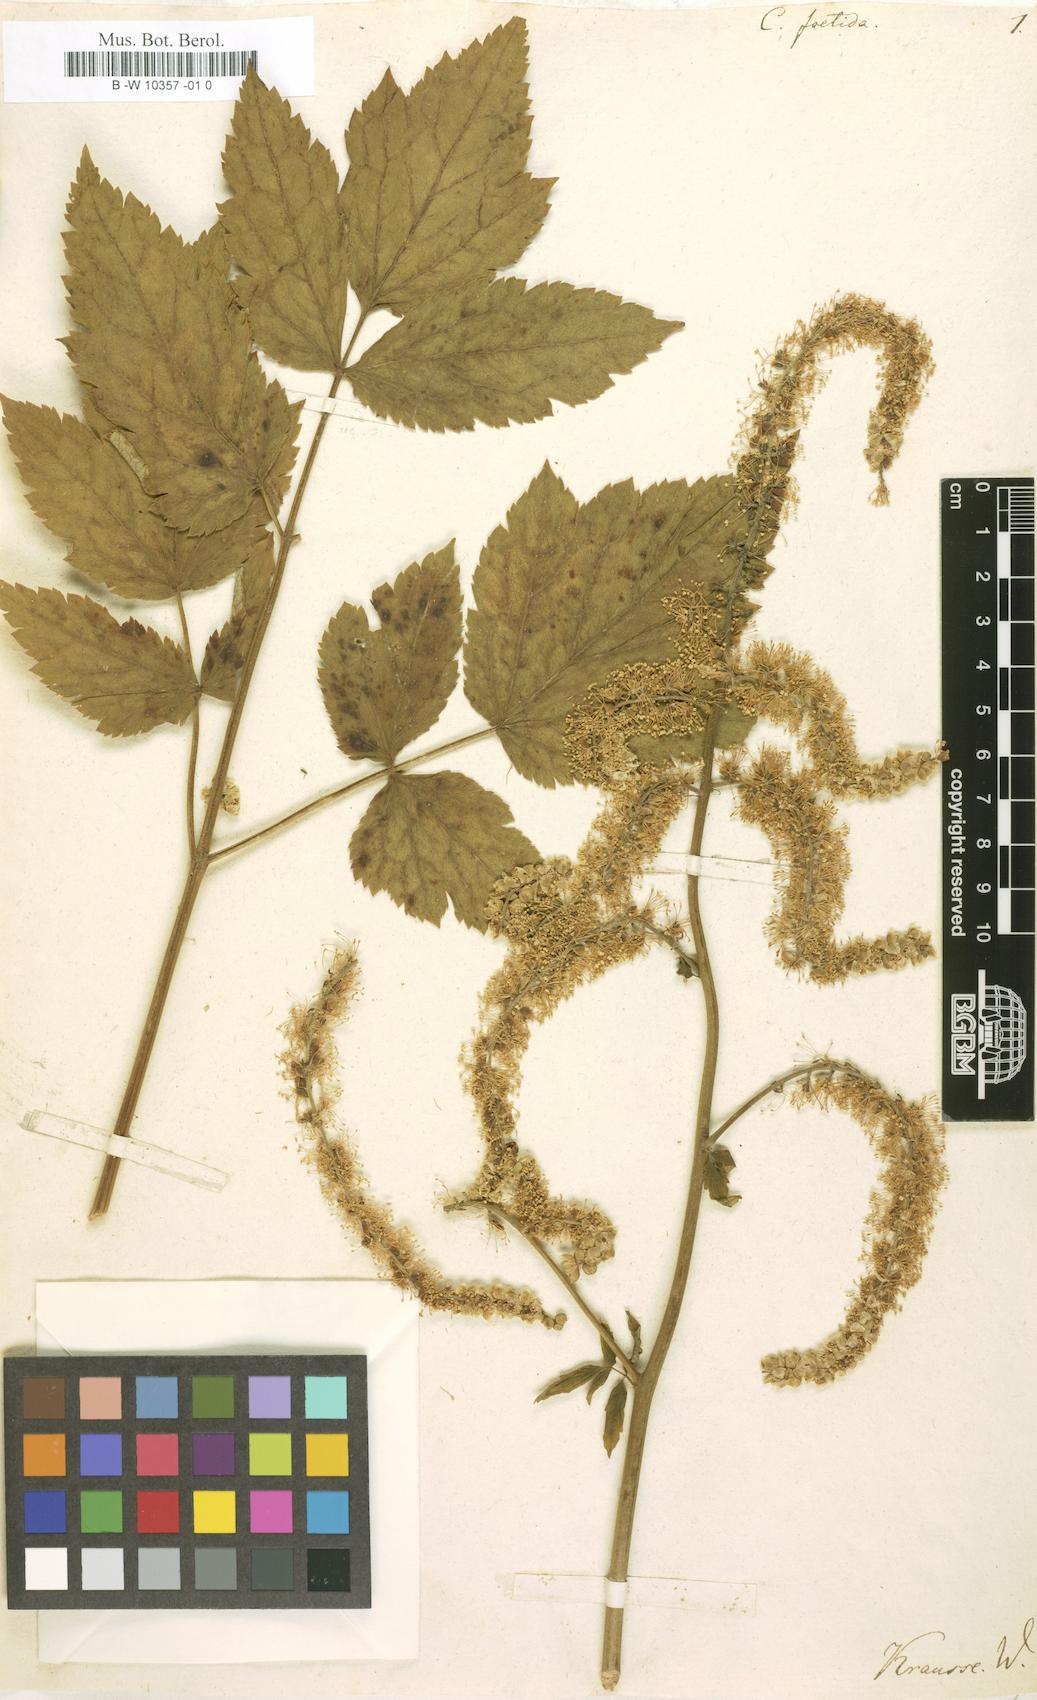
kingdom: Plantae
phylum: Tracheophyta
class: Magnoliopsida
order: Ranunculales
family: Ranunculaceae
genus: Actaea
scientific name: Actaea
